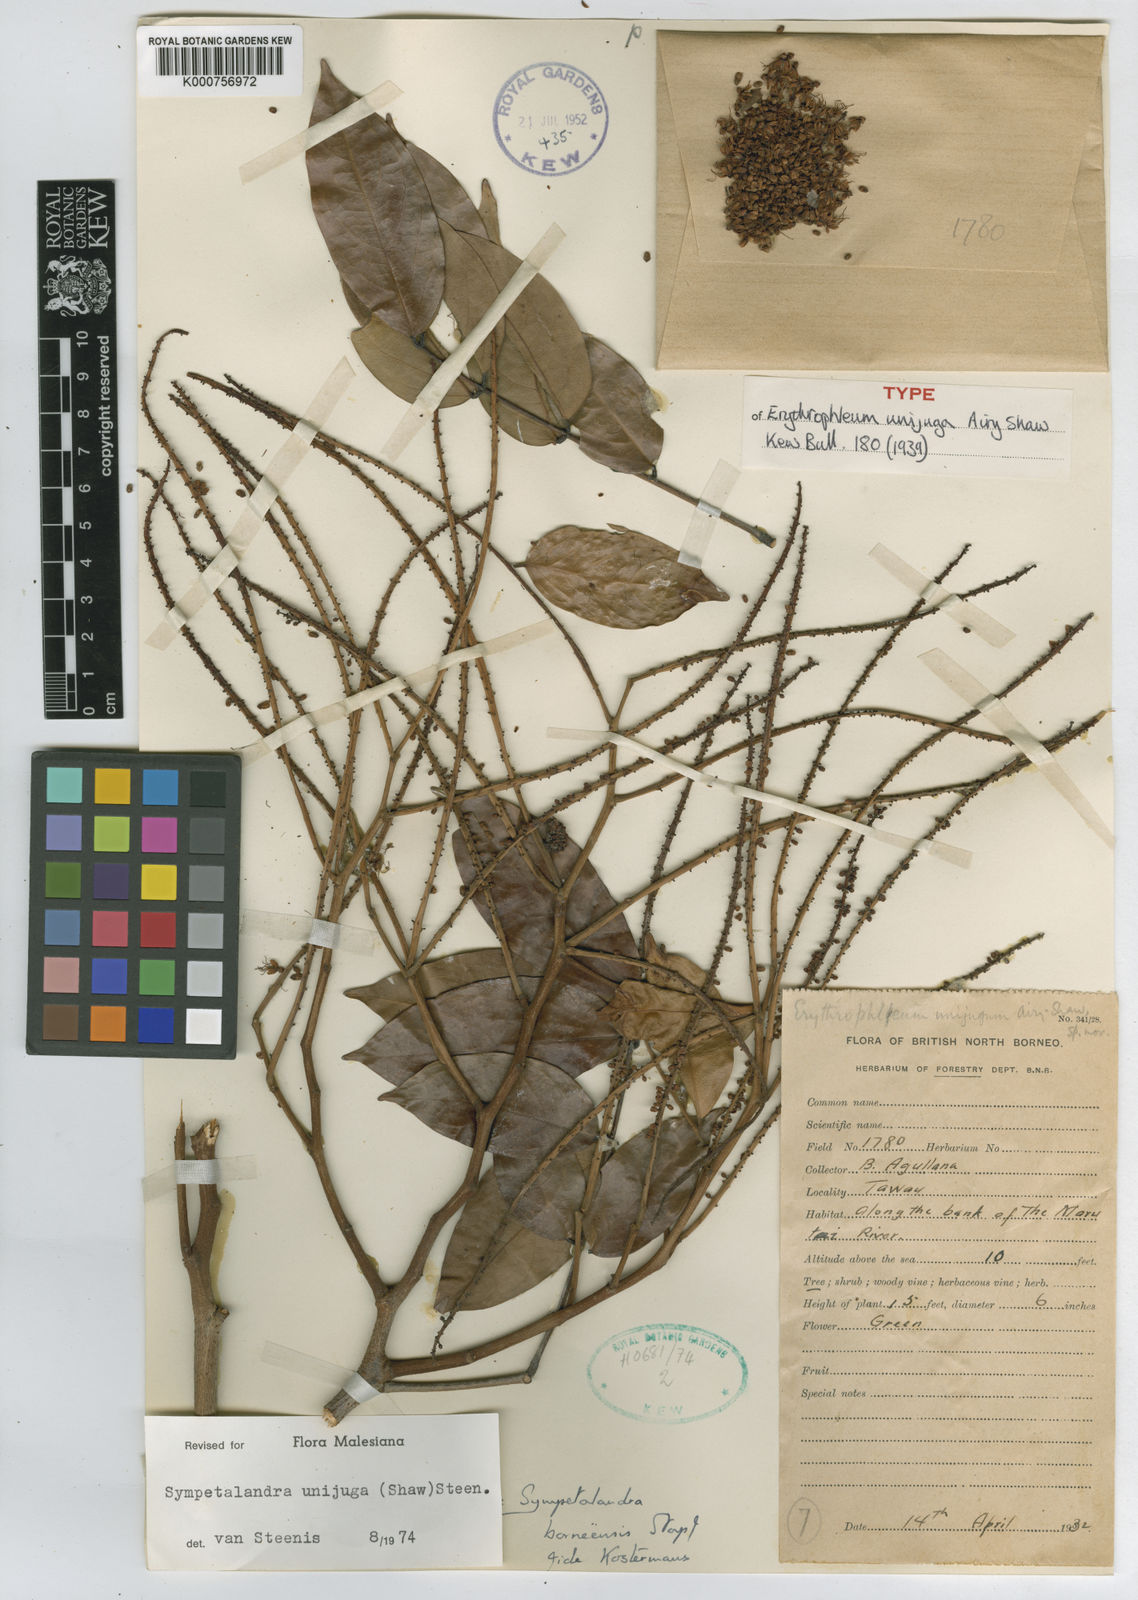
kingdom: Plantae
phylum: Tracheophyta
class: Magnoliopsida
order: Fabales
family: Fabaceae
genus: Sympetalandra
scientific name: Sympetalandra unijuga
